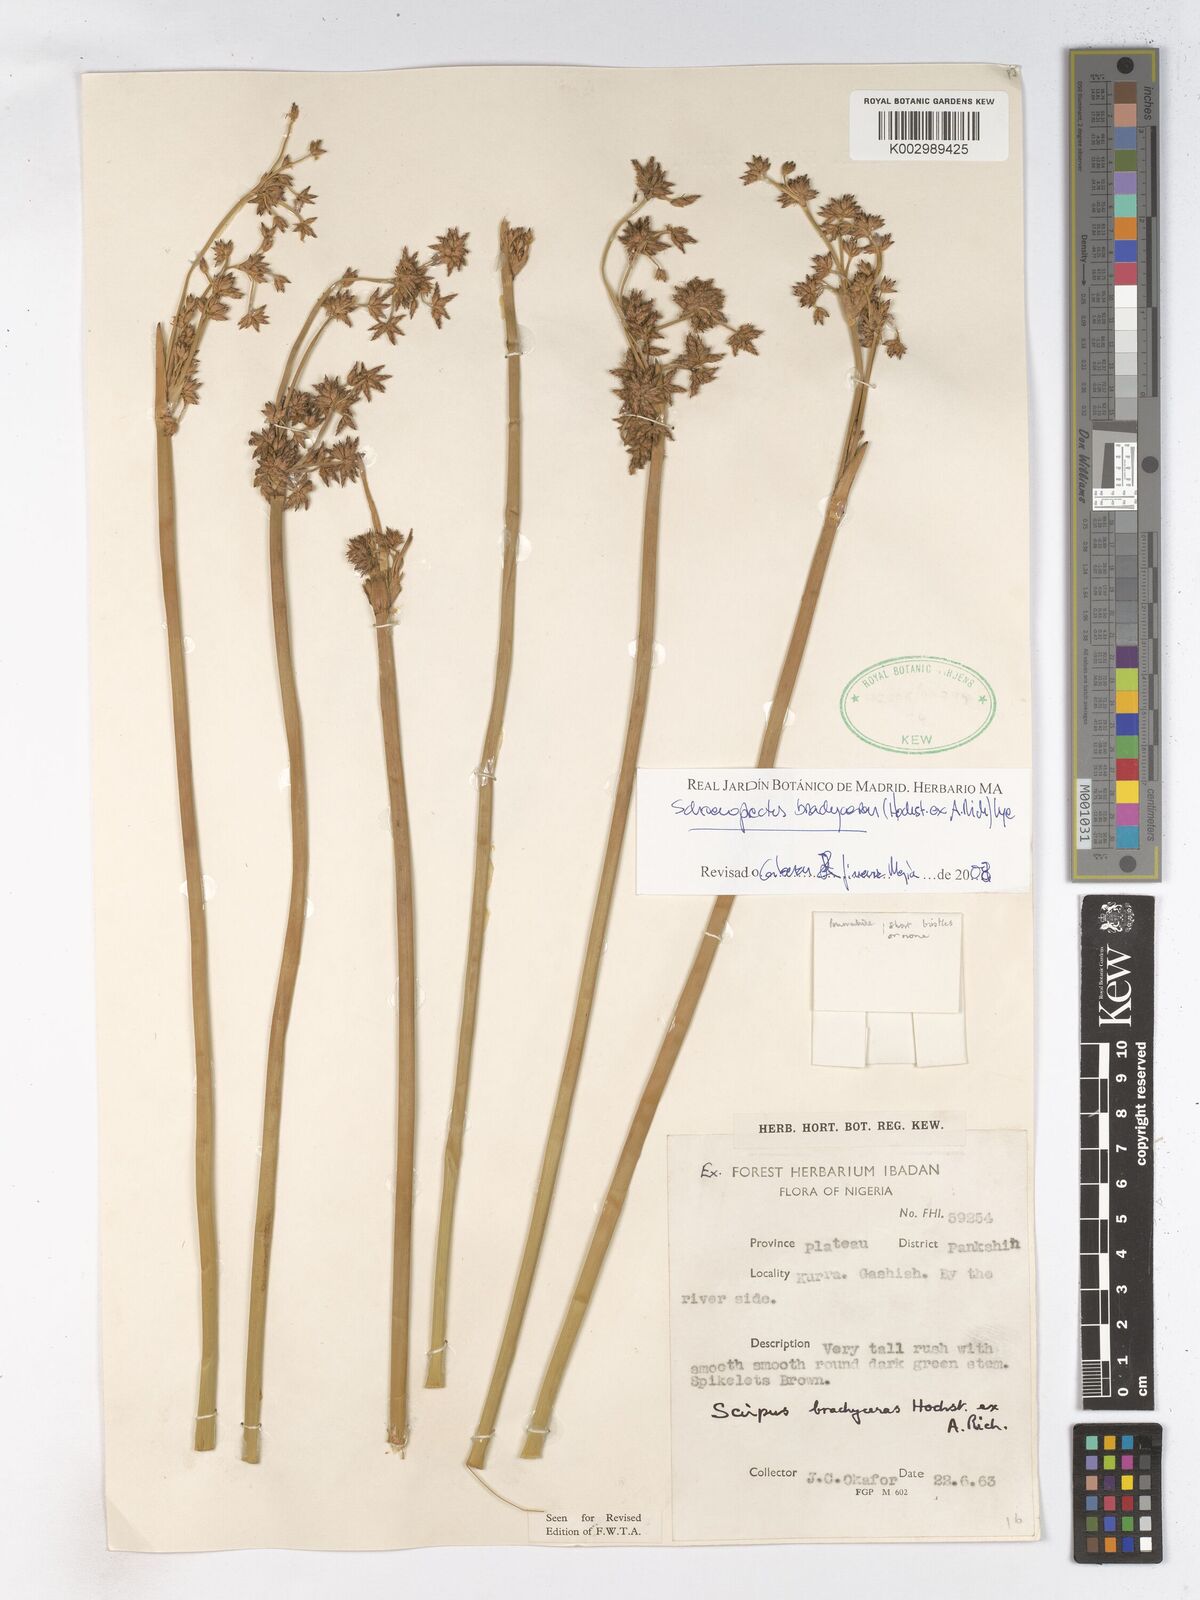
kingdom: Plantae
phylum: Tracheophyta
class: Liliopsida
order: Poales
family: Cyperaceae
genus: Schoenoplectiella
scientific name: Schoenoplectiella corymbosa
